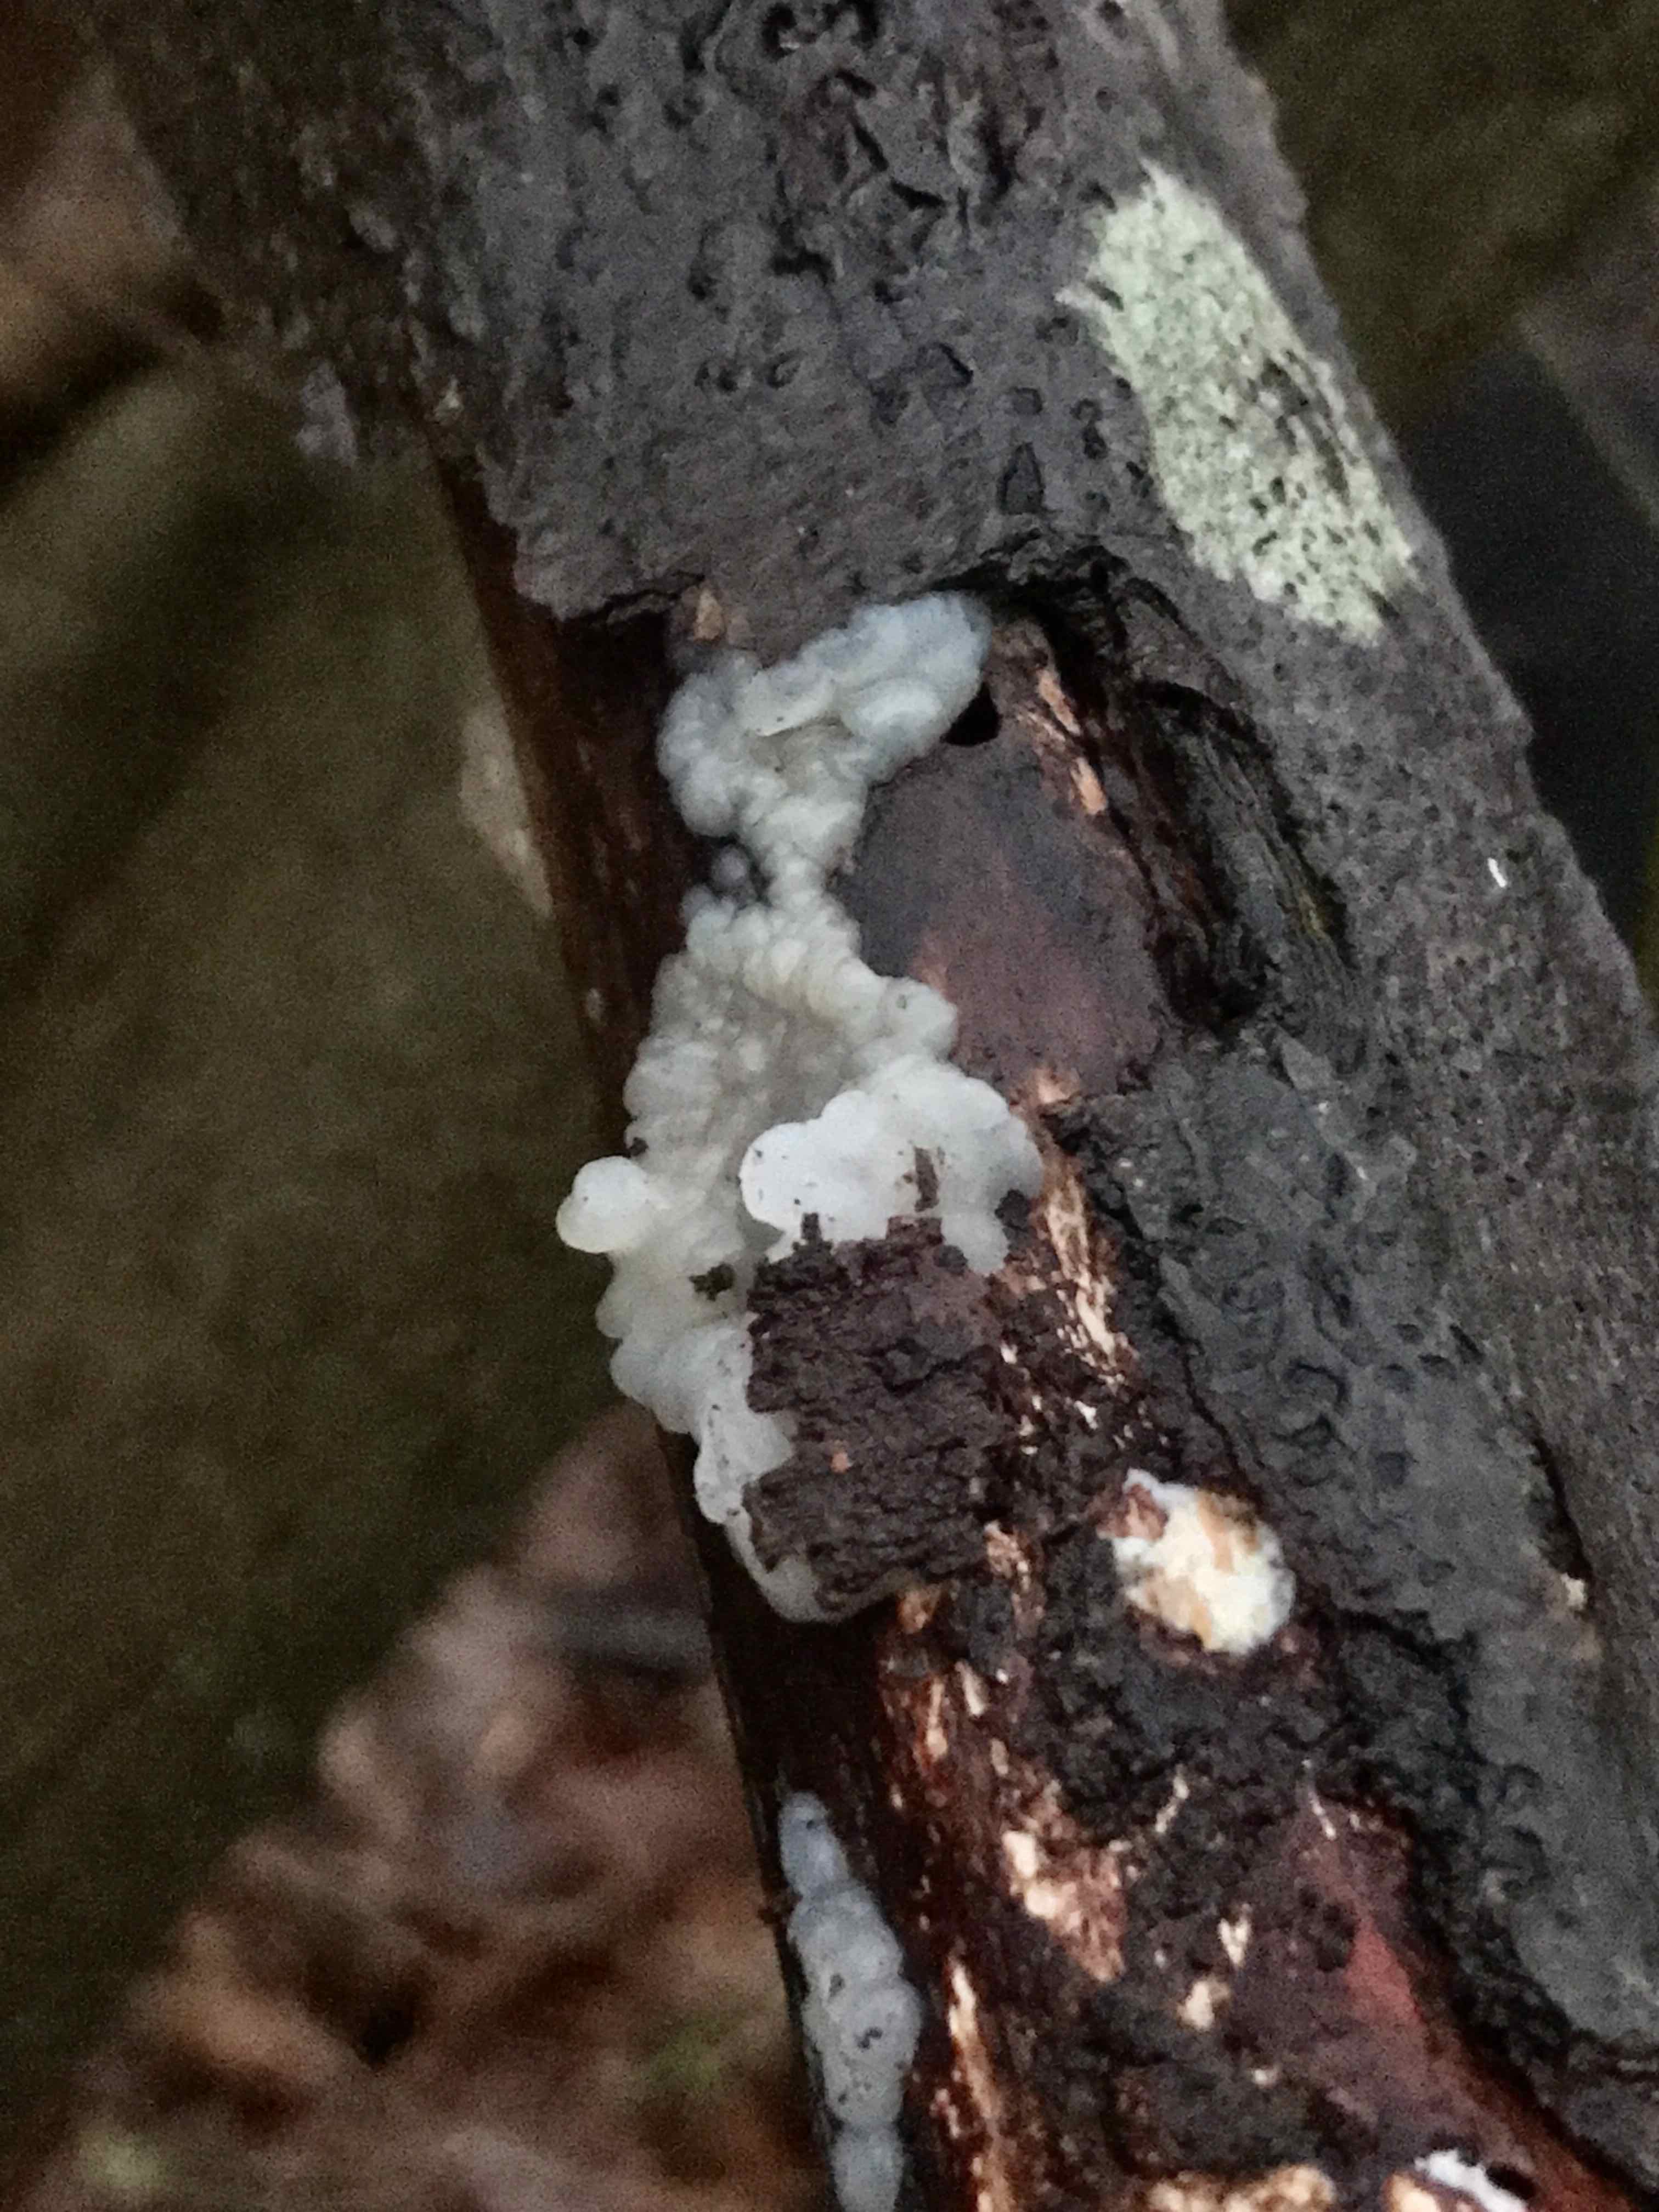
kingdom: Fungi
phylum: Basidiomycota
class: Agaricomycetes
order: Auriculariales
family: Hyaloriaceae
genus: Myxarium
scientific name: Myxarium nucleatum
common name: klar bævretop
